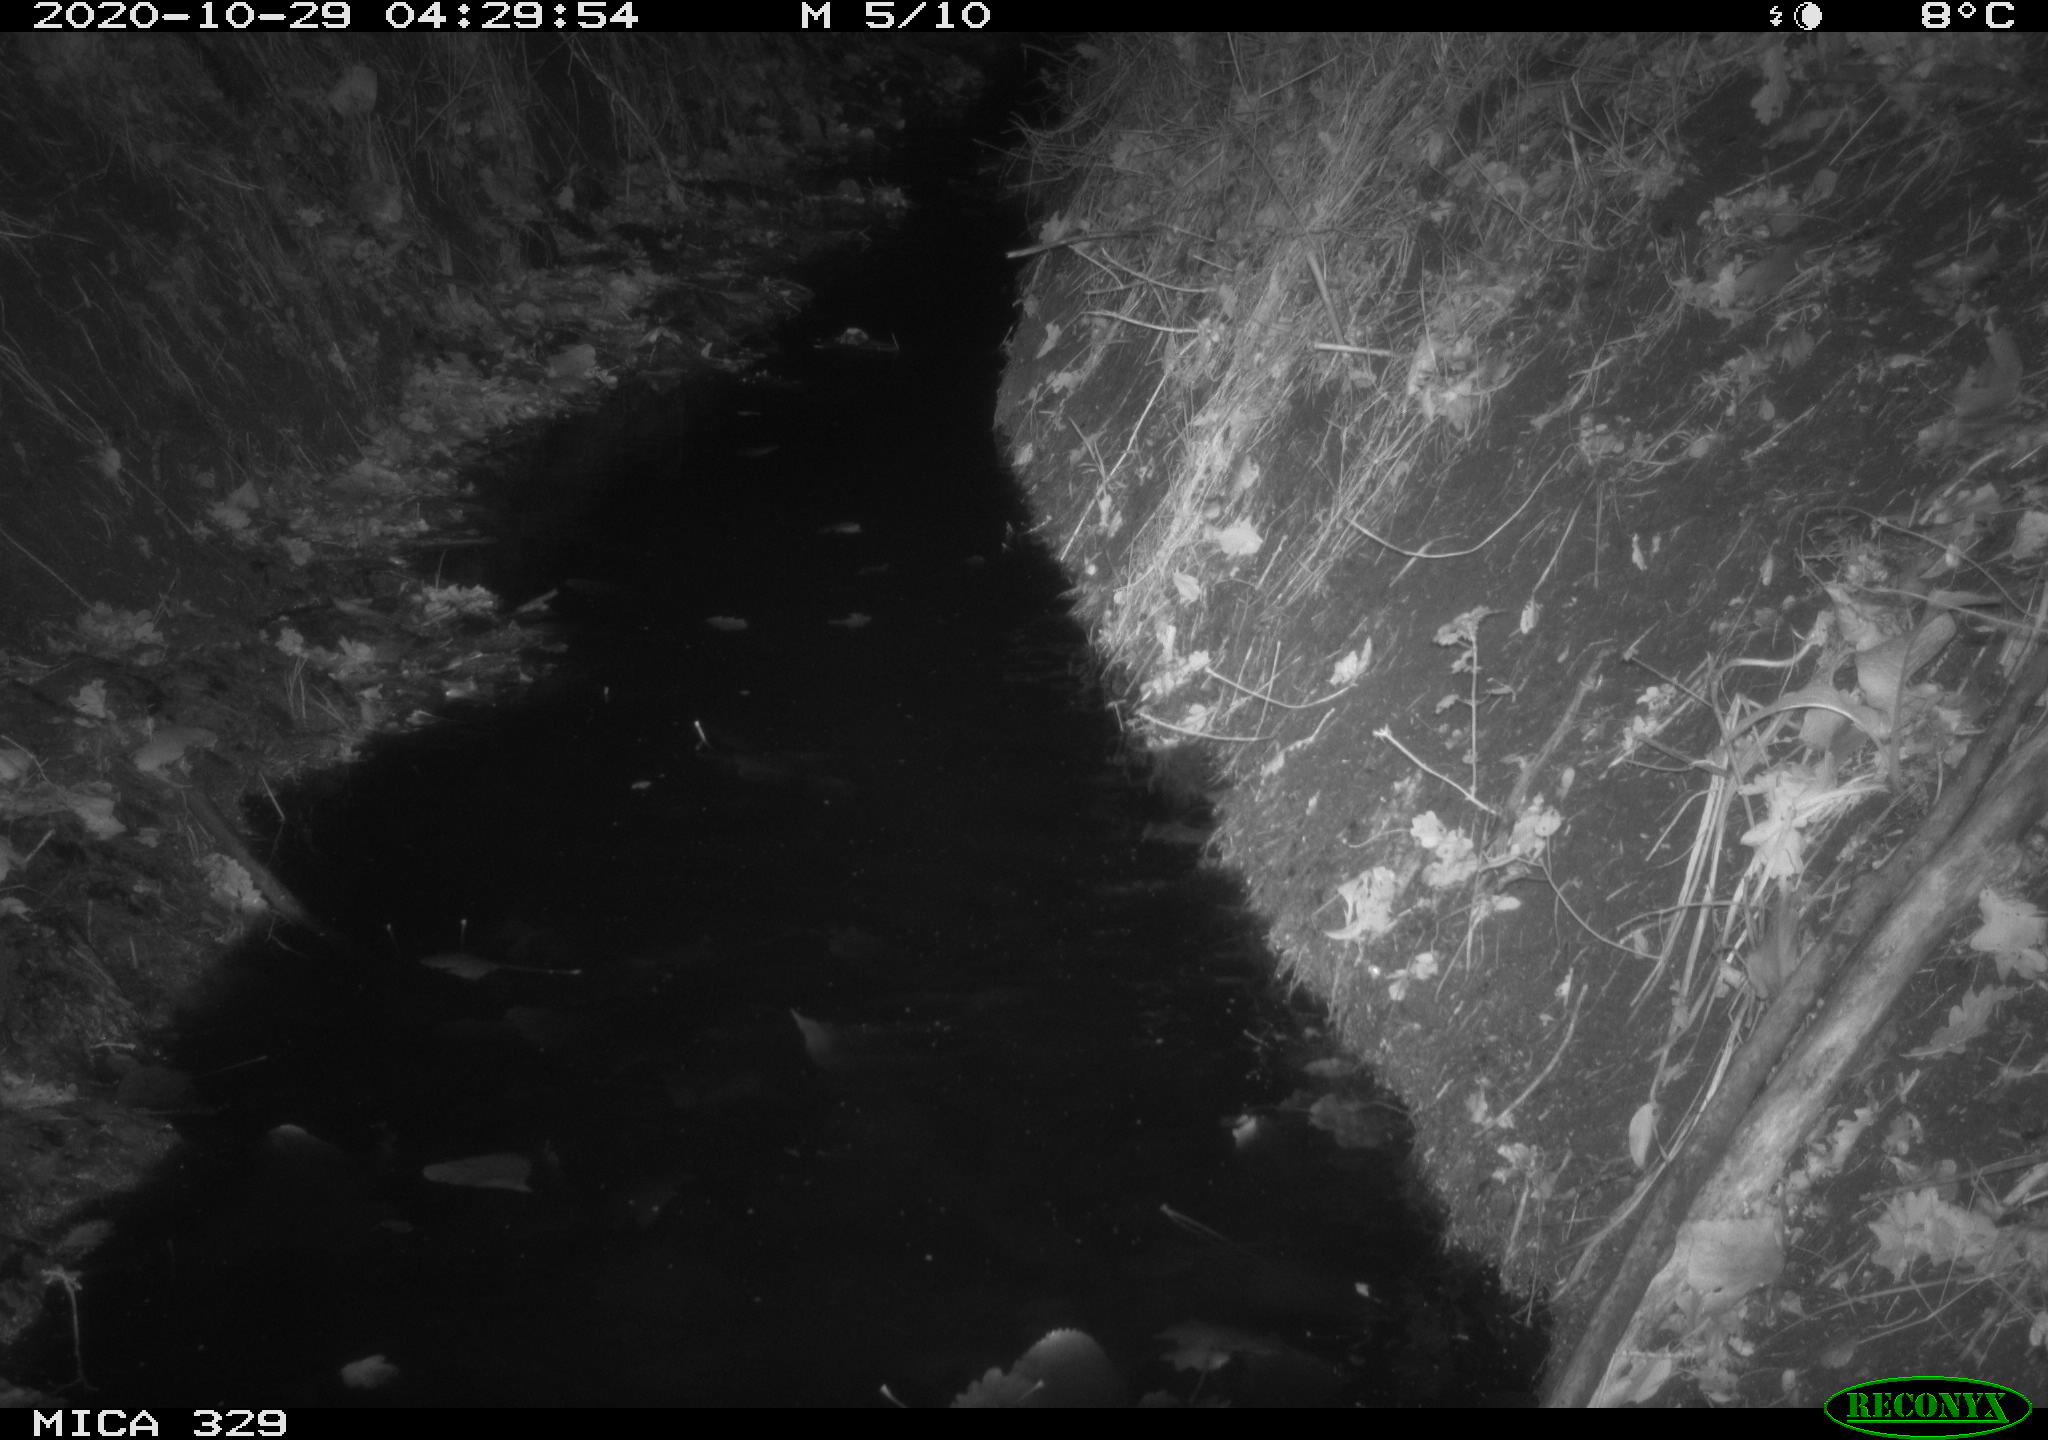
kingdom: Animalia
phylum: Chordata
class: Mammalia
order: Rodentia
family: Muridae
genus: Rattus
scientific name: Rattus norvegicus
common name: Brown rat
